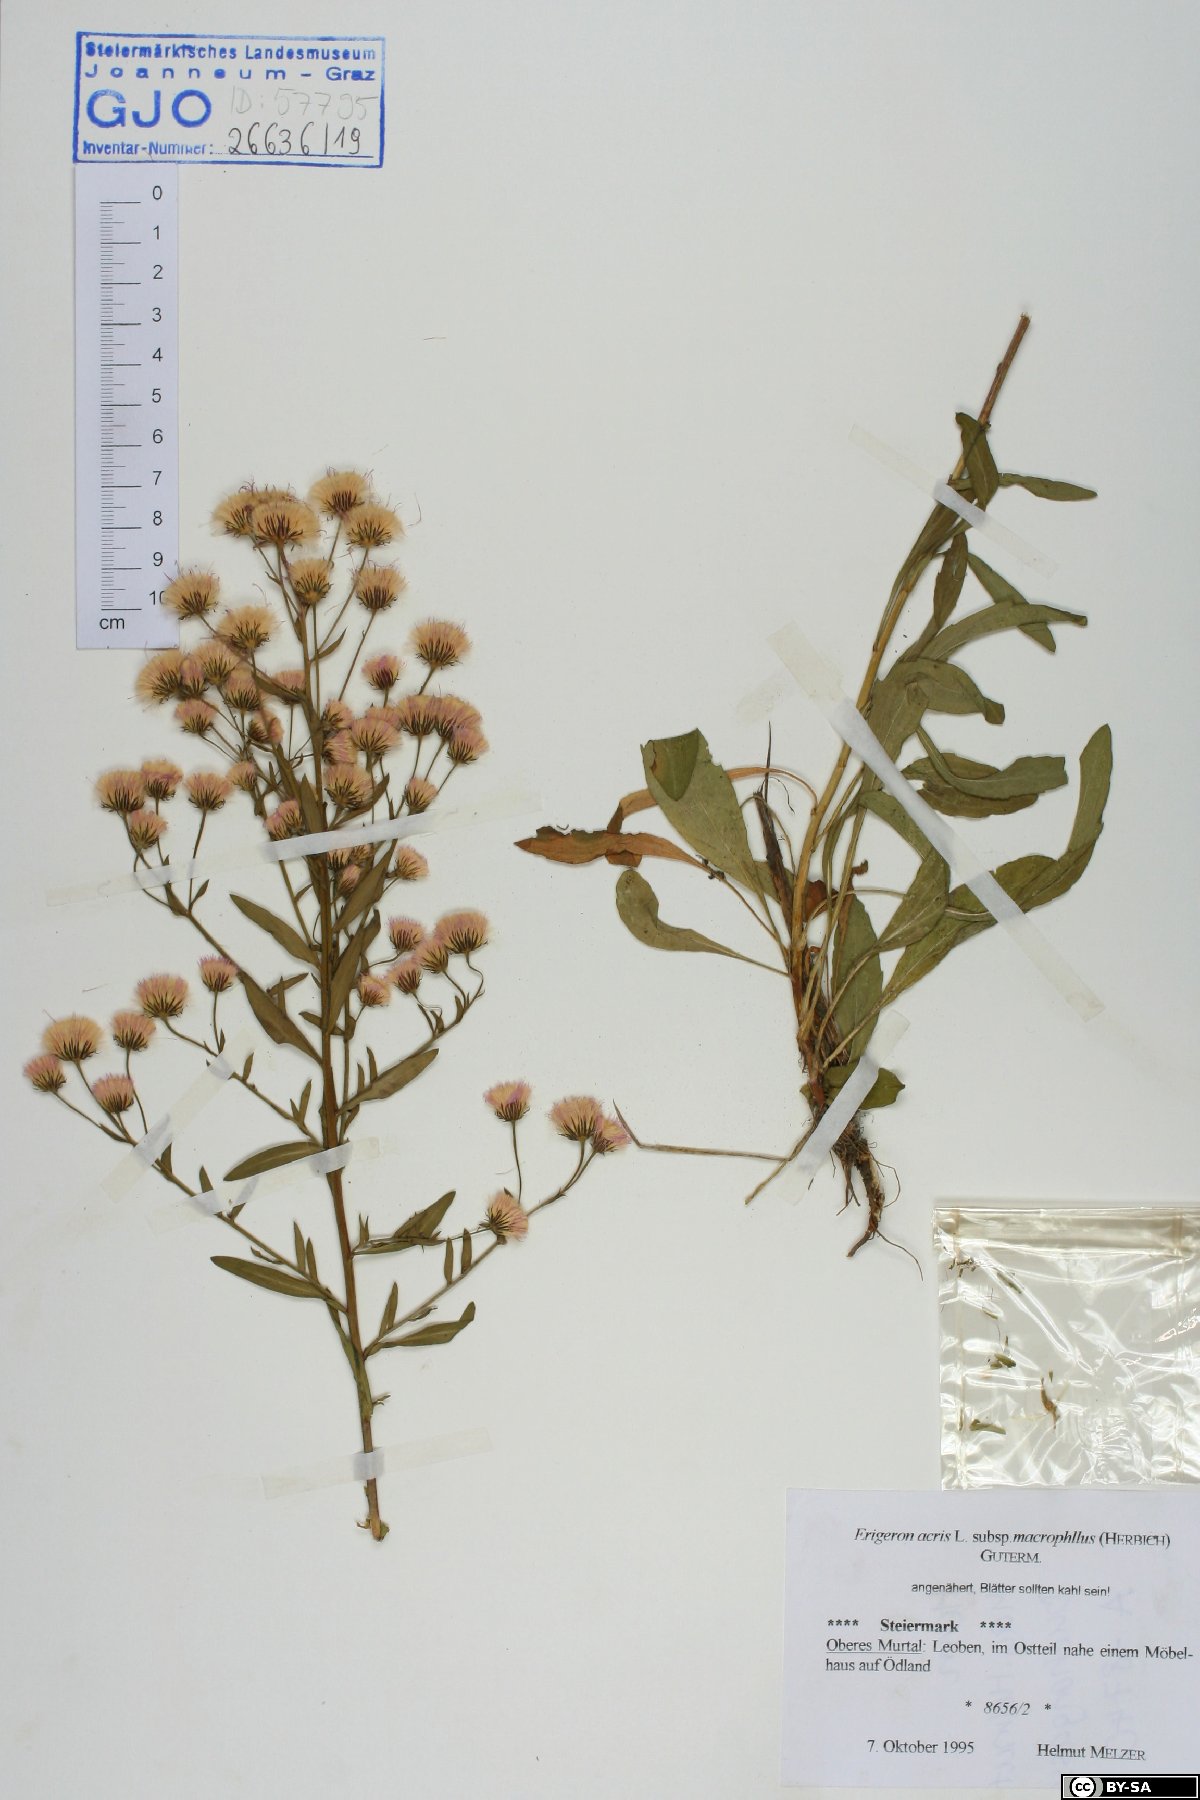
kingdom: Plantae
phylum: Tracheophyta
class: Magnoliopsida
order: Asterales
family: Asteraceae
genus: Erigeron
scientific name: Erigeron macrophyllus
